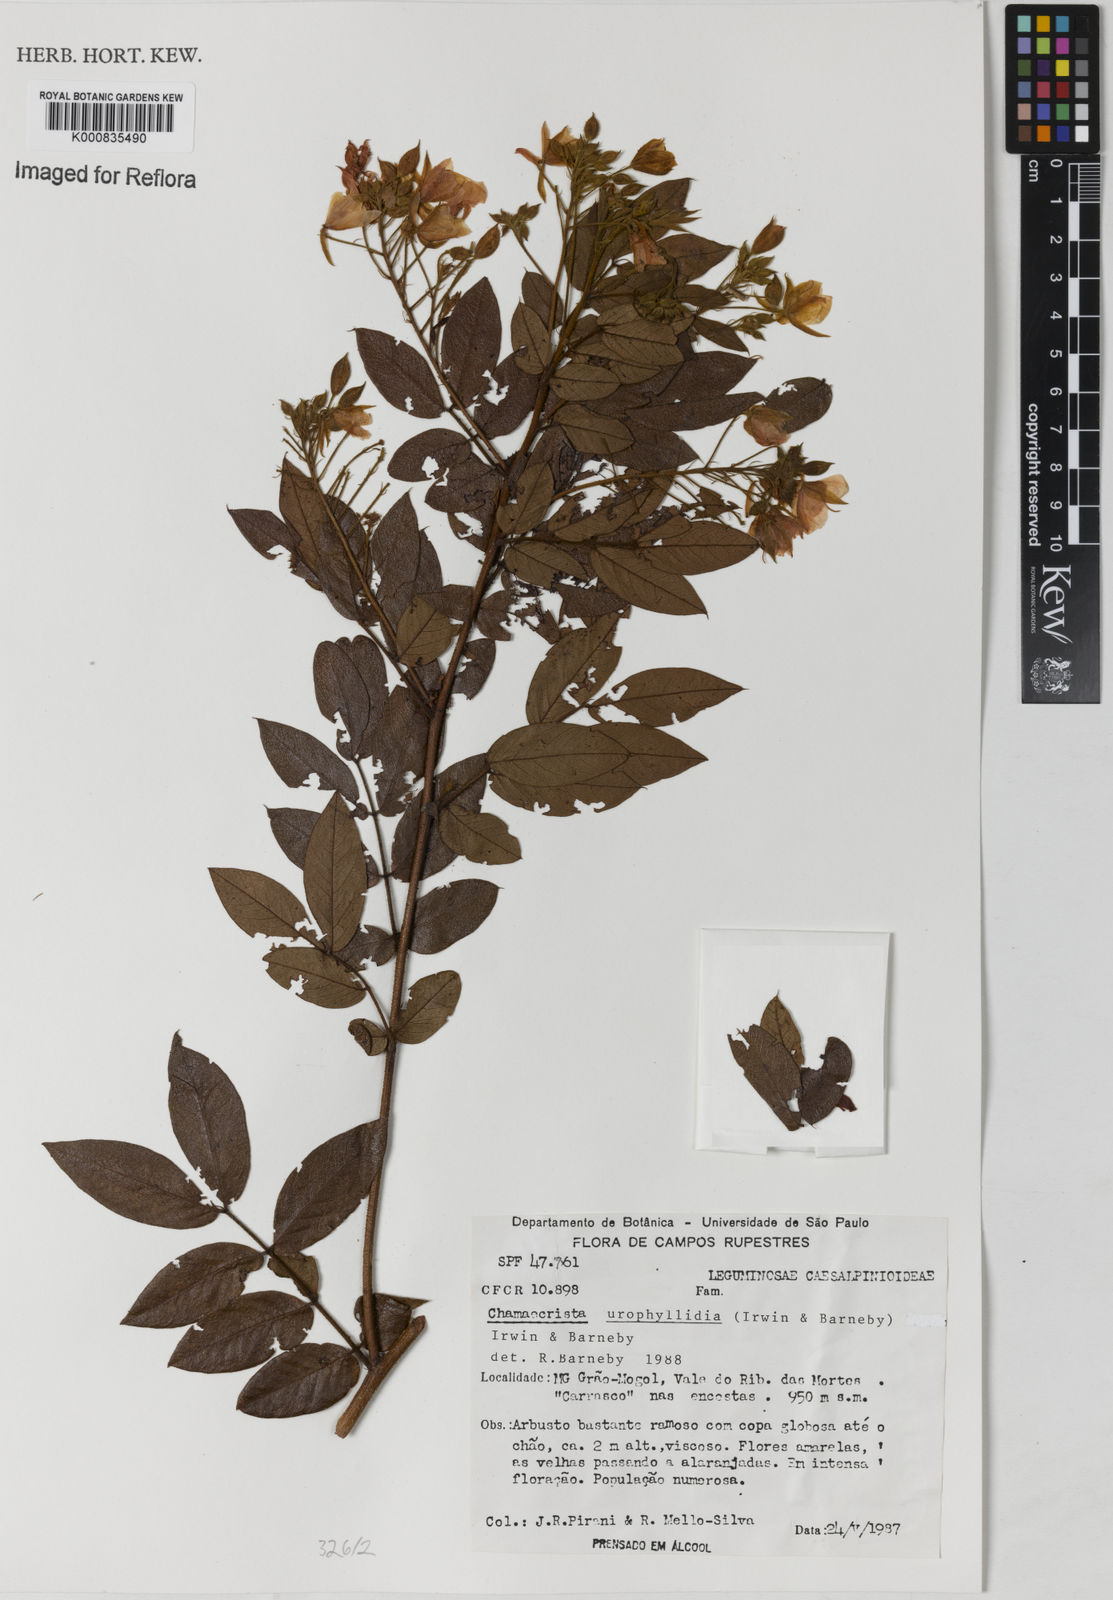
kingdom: Plantae
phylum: Tracheophyta
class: Magnoliopsida
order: Fabales
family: Fabaceae
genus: Chamaecrista
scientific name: Chamaecrista urophyllidia
